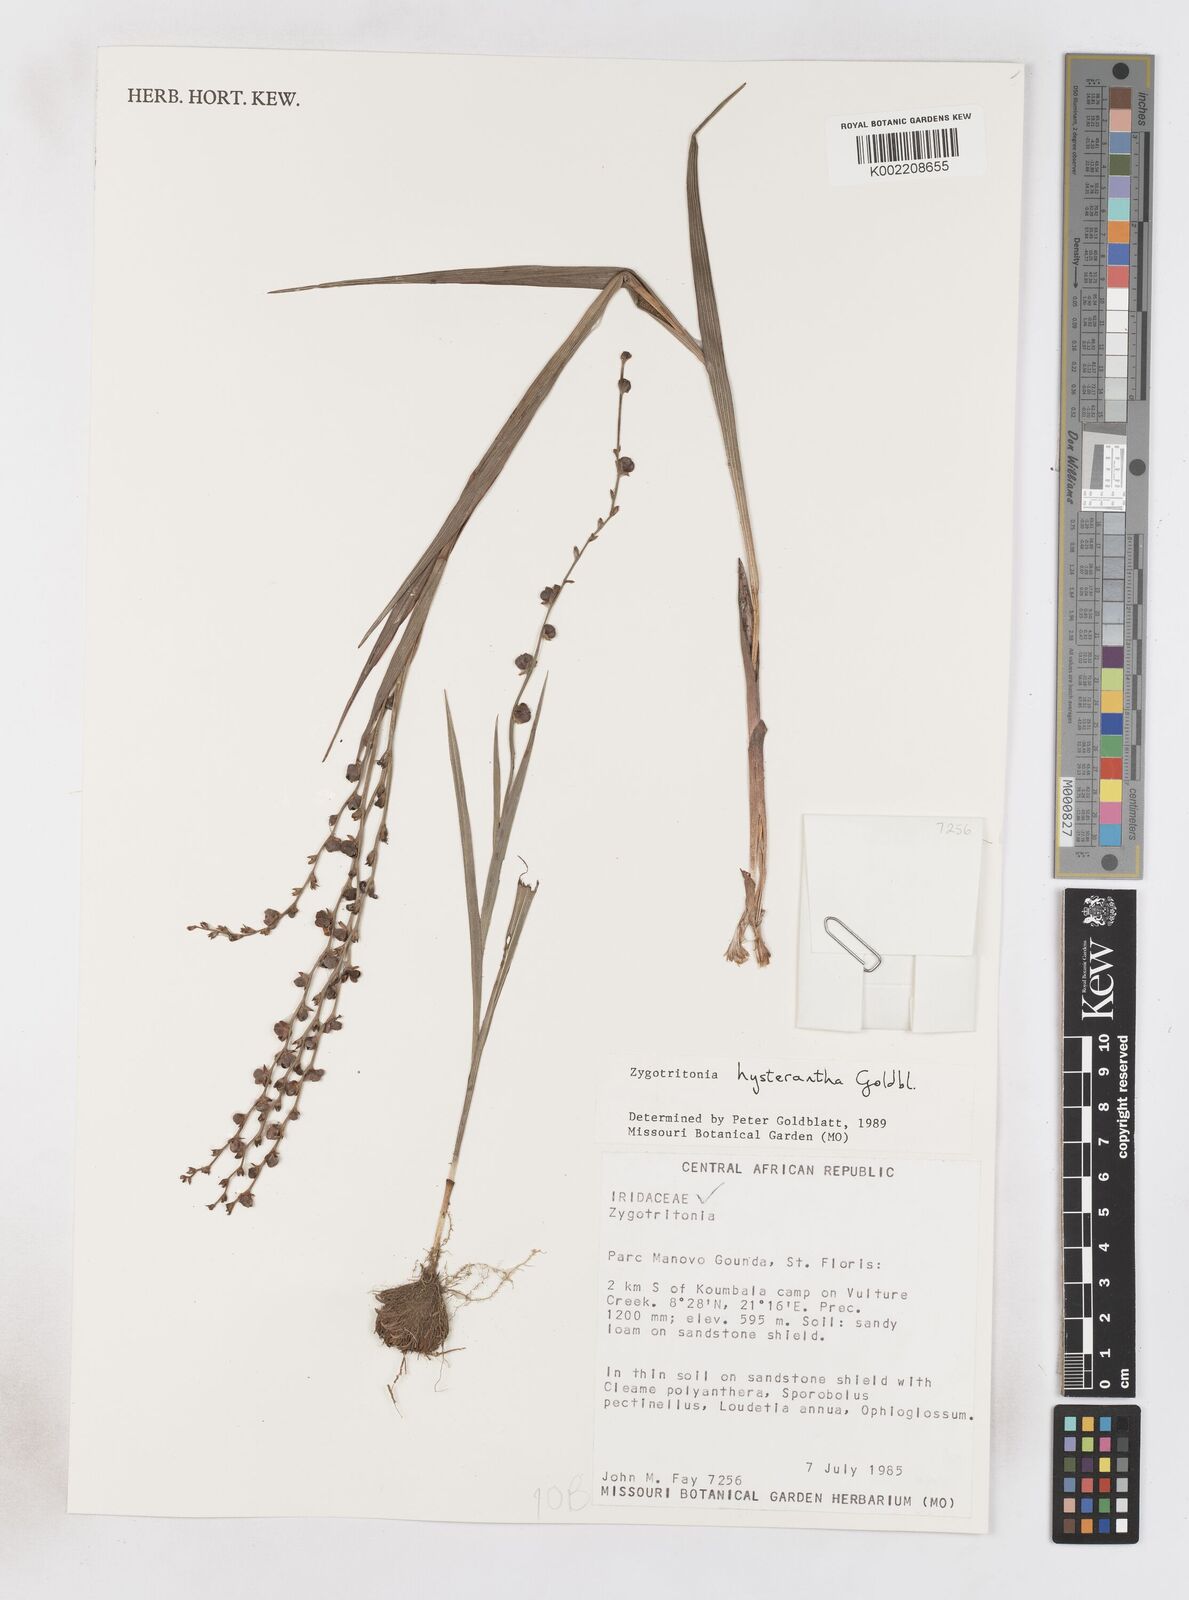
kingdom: Plantae
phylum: Tracheophyta
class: Liliopsida
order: Asparagales
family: Iridaceae
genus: Zygotritonia
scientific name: Zygotritonia hysterantha
